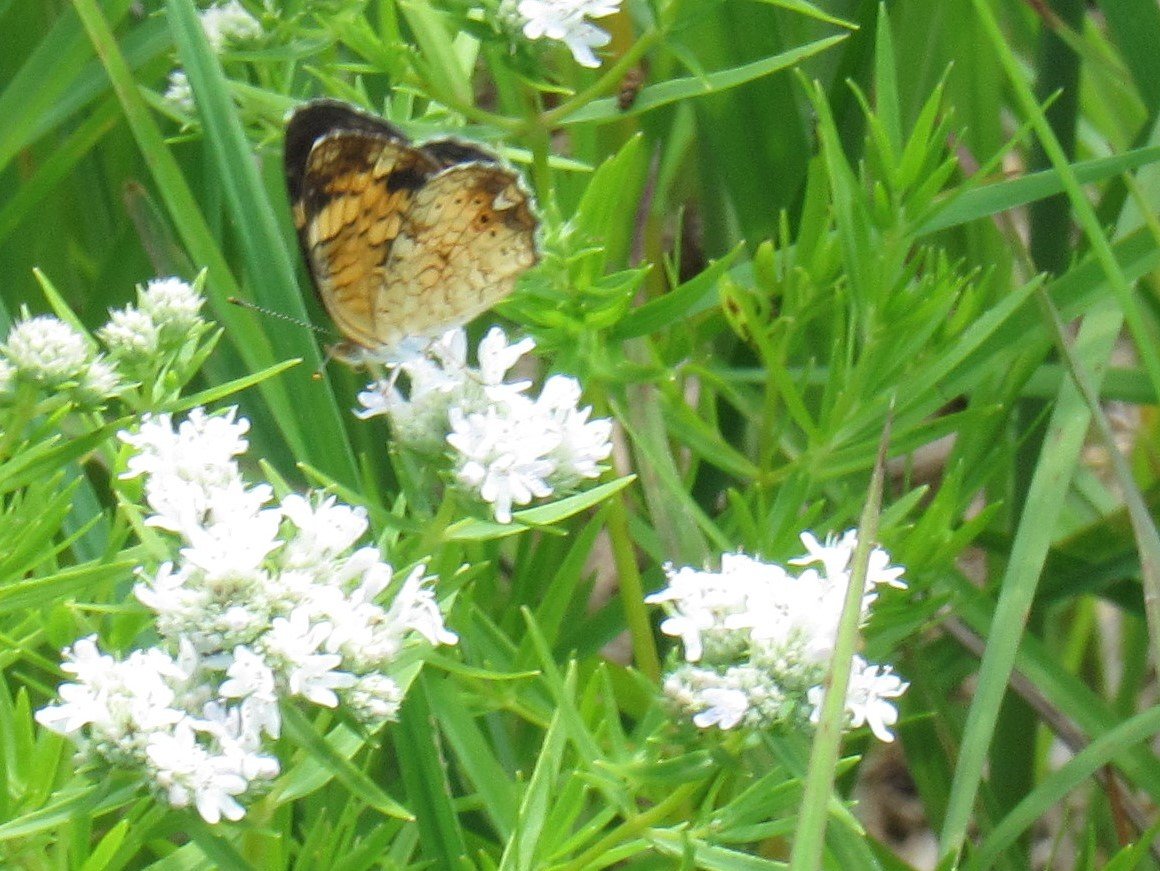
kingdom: Animalia
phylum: Arthropoda
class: Insecta
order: Lepidoptera
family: Nymphalidae
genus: Phyciodes
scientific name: Phyciodes tharos
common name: Pearl Crescent
